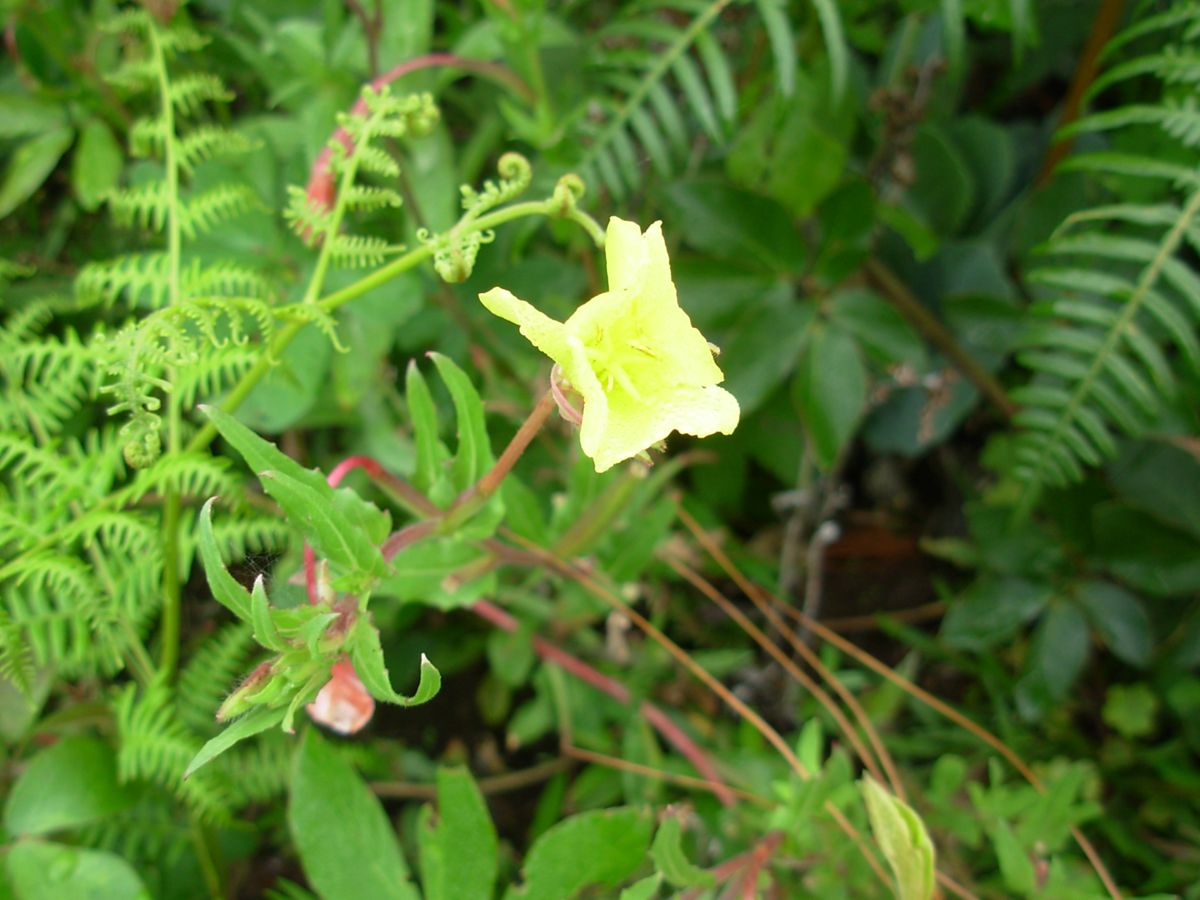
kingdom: Plantae
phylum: Tracheophyta
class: Magnoliopsida
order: Myrtales
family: Onagraceae
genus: Oenothera
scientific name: Oenothera elata
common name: Hooker's evening-primrose
